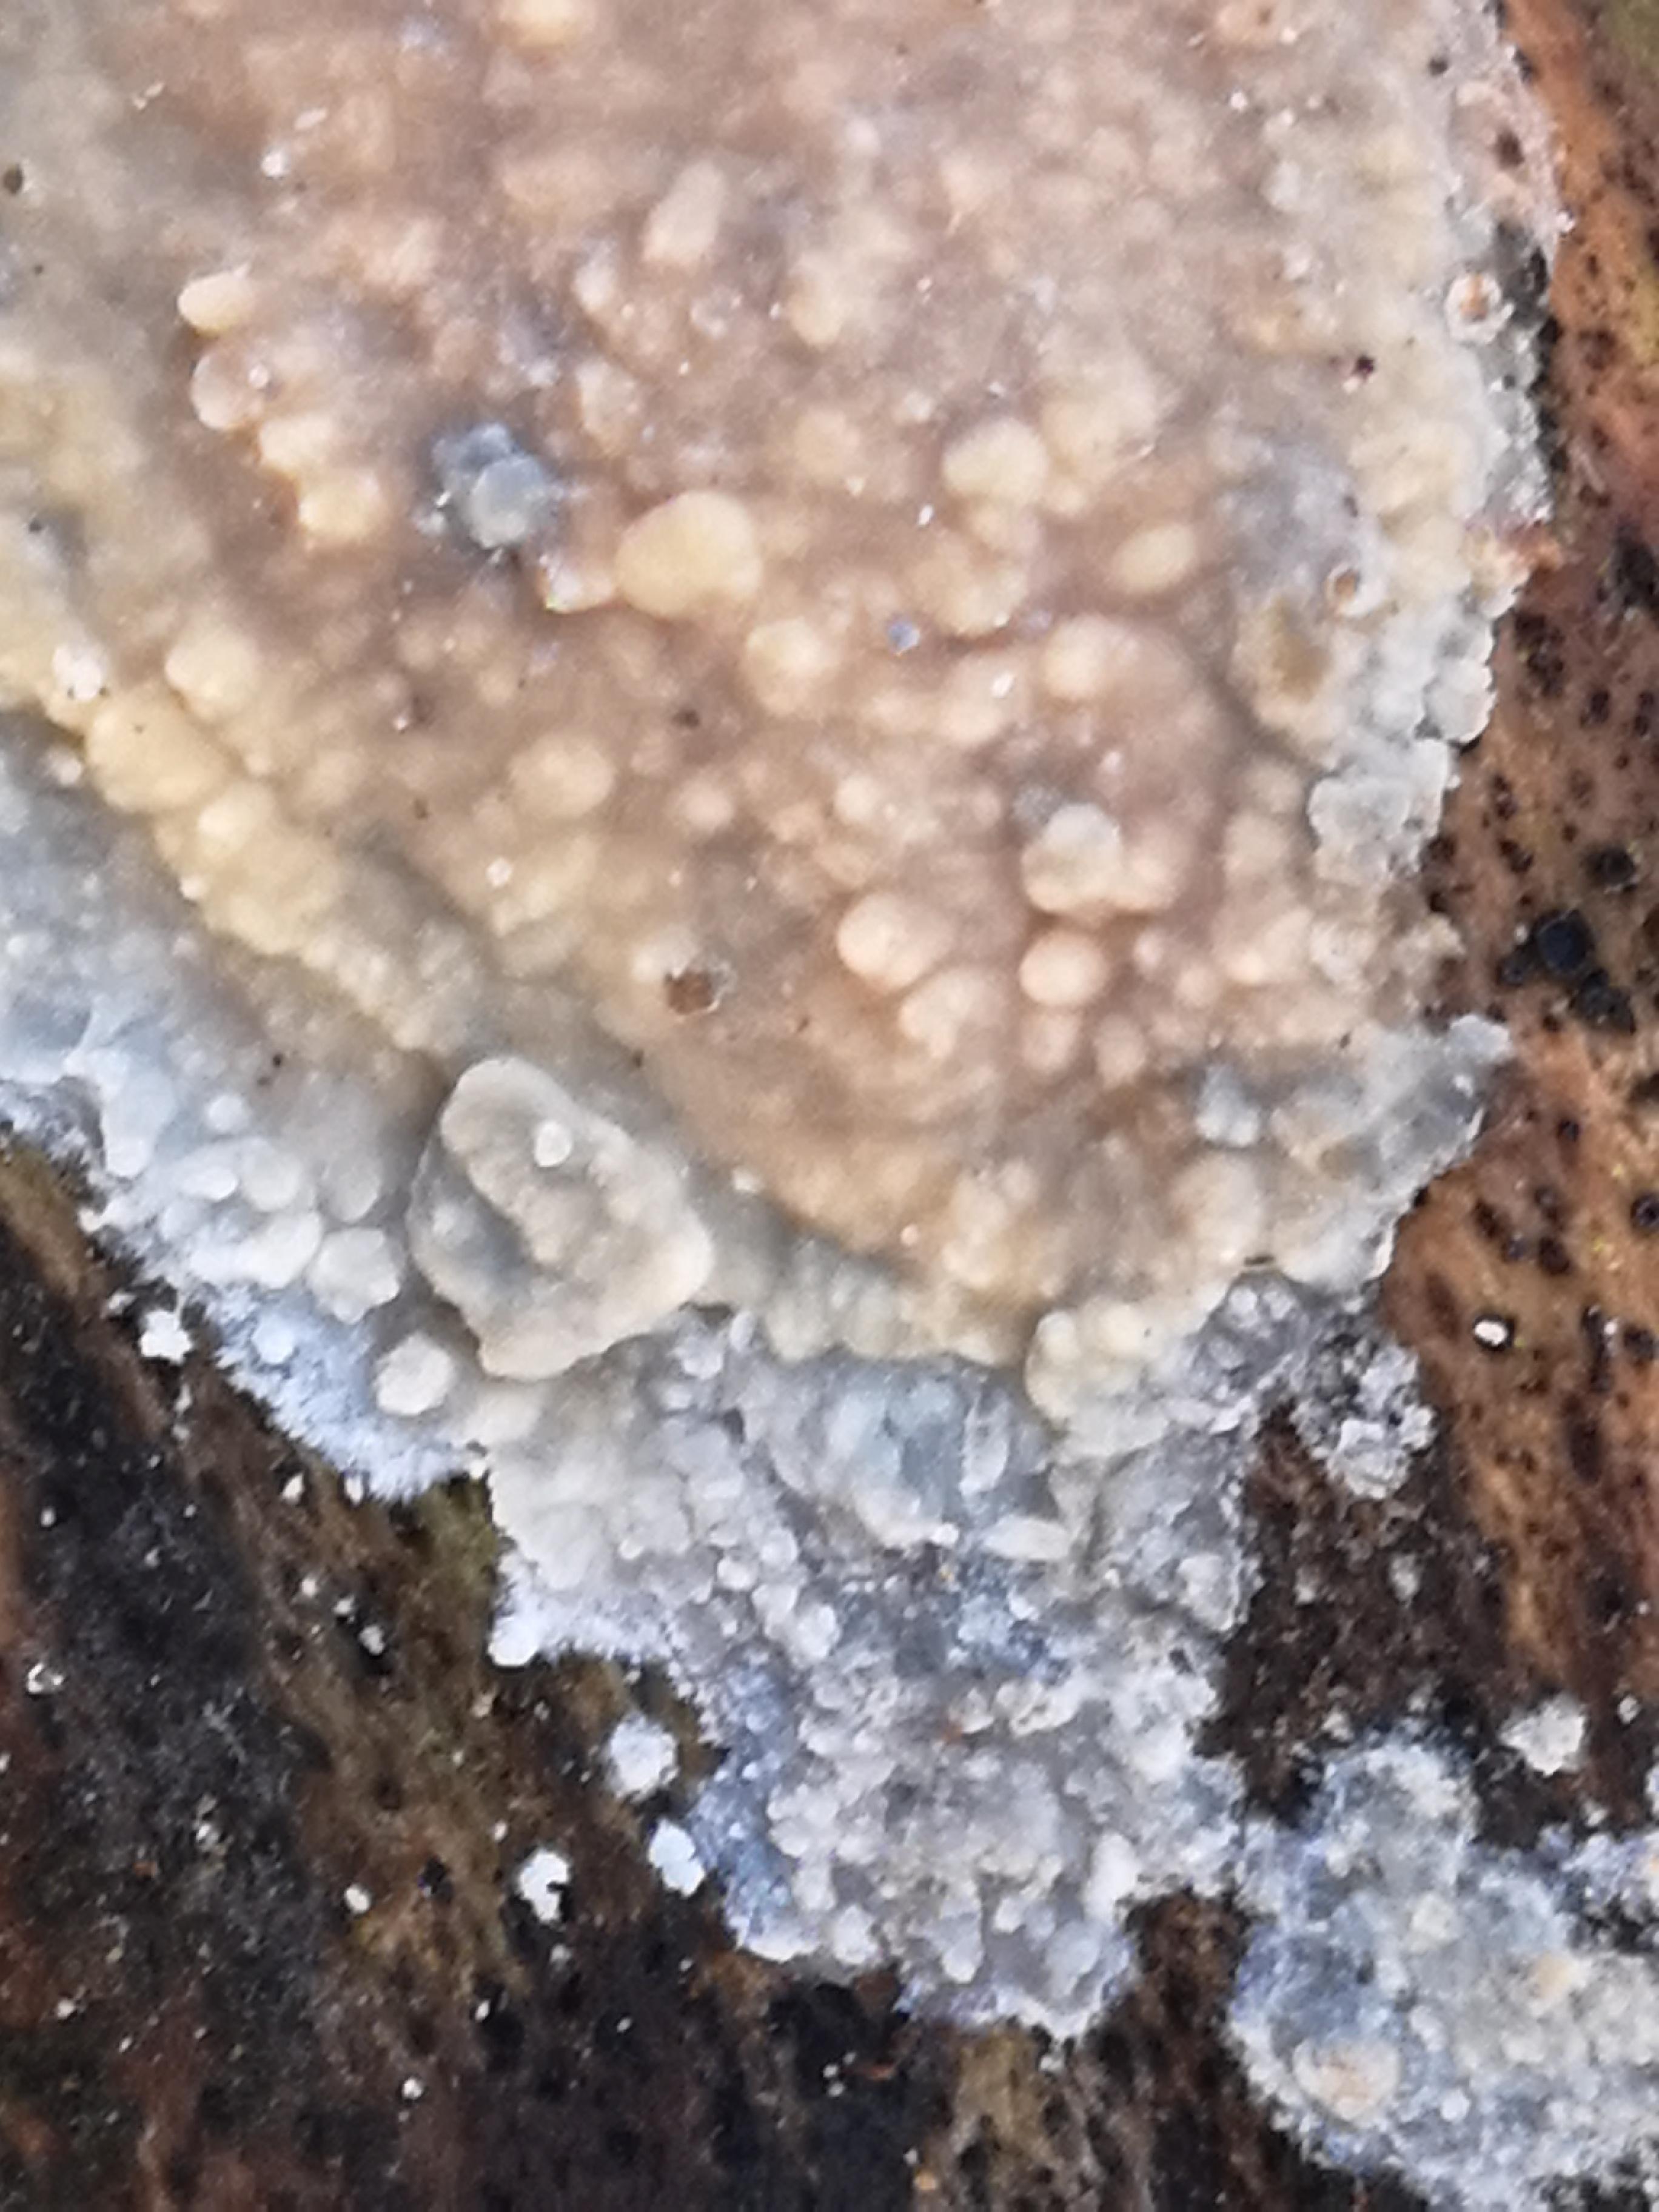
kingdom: Fungi
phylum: Basidiomycota
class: Agaricomycetes
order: Corticiales
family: Corticiaceae
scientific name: Corticiaceae
